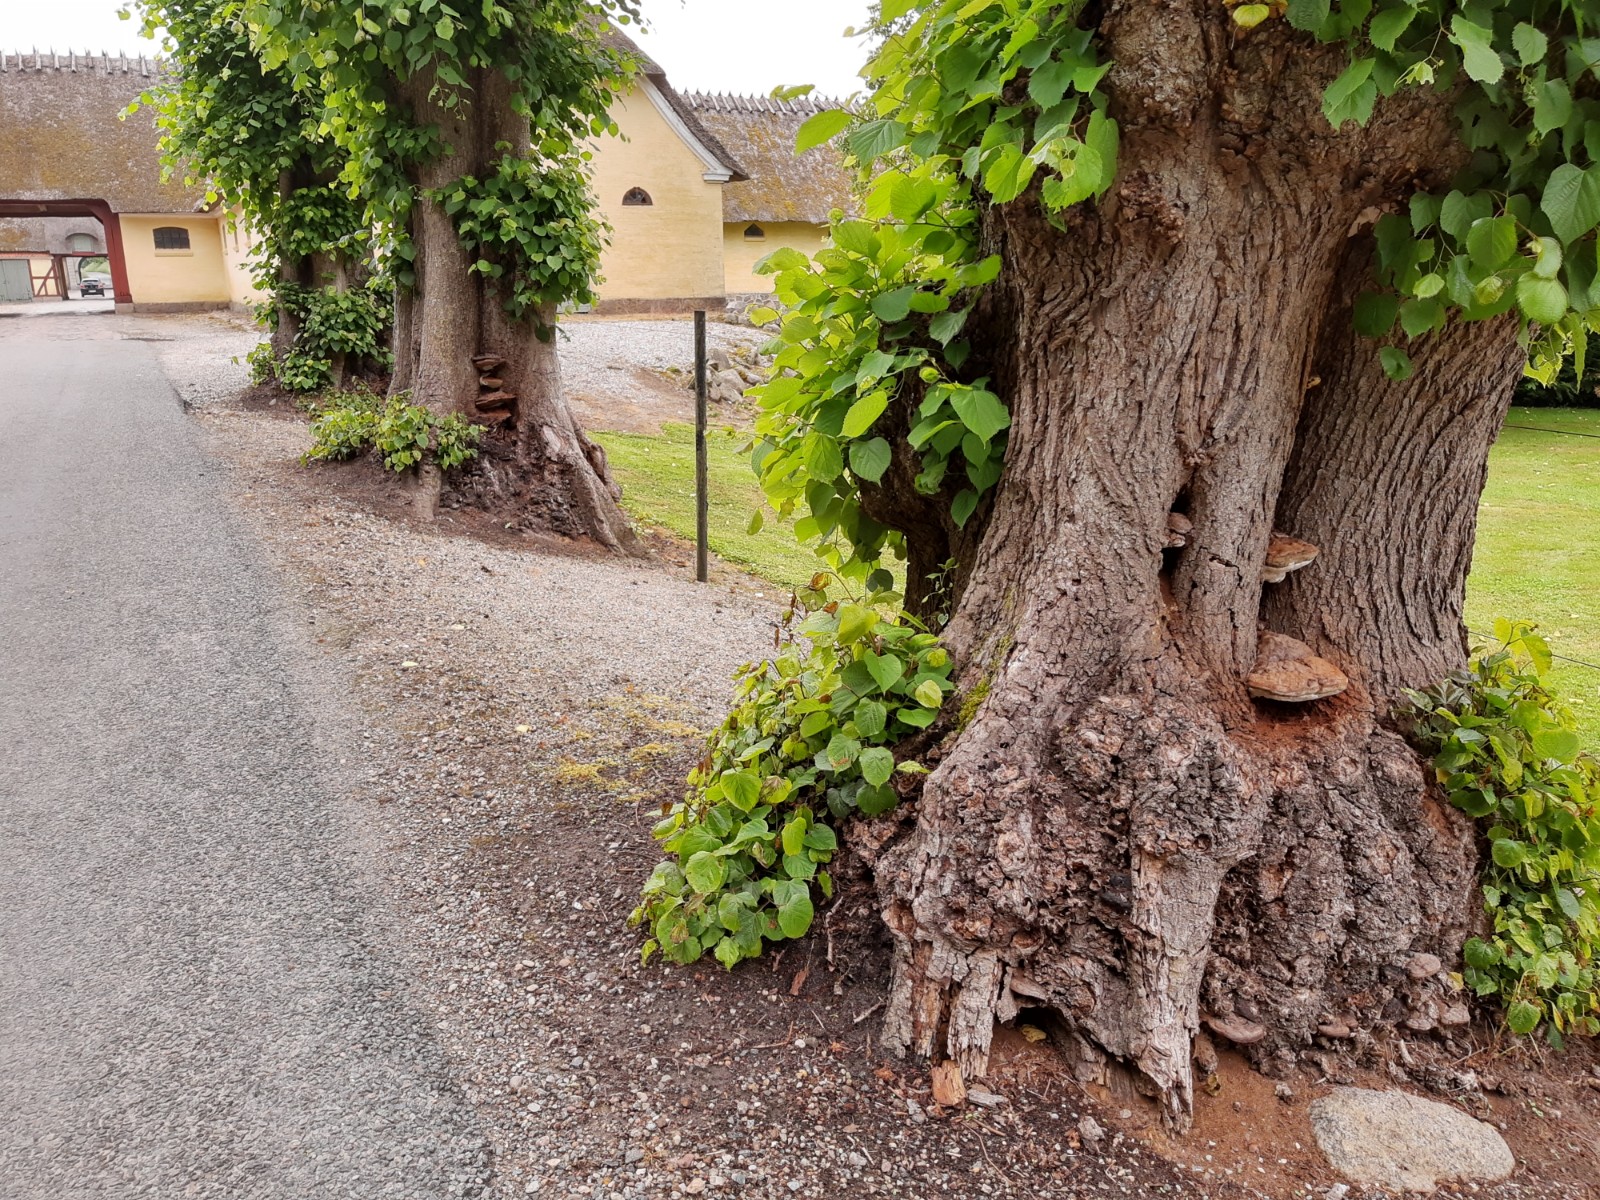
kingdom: Fungi
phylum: Basidiomycota
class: Agaricomycetes
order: Polyporales
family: Polyporaceae
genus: Ganoderma
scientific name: Ganoderma applanatum
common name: flad lakporesvamp
